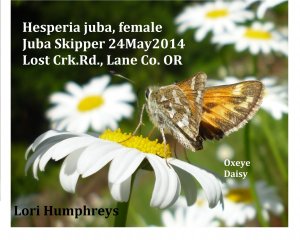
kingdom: Animalia
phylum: Arthropoda
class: Insecta
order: Lepidoptera
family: Hesperiidae
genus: Hesperia
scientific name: Hesperia juba
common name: Juba Skipper
